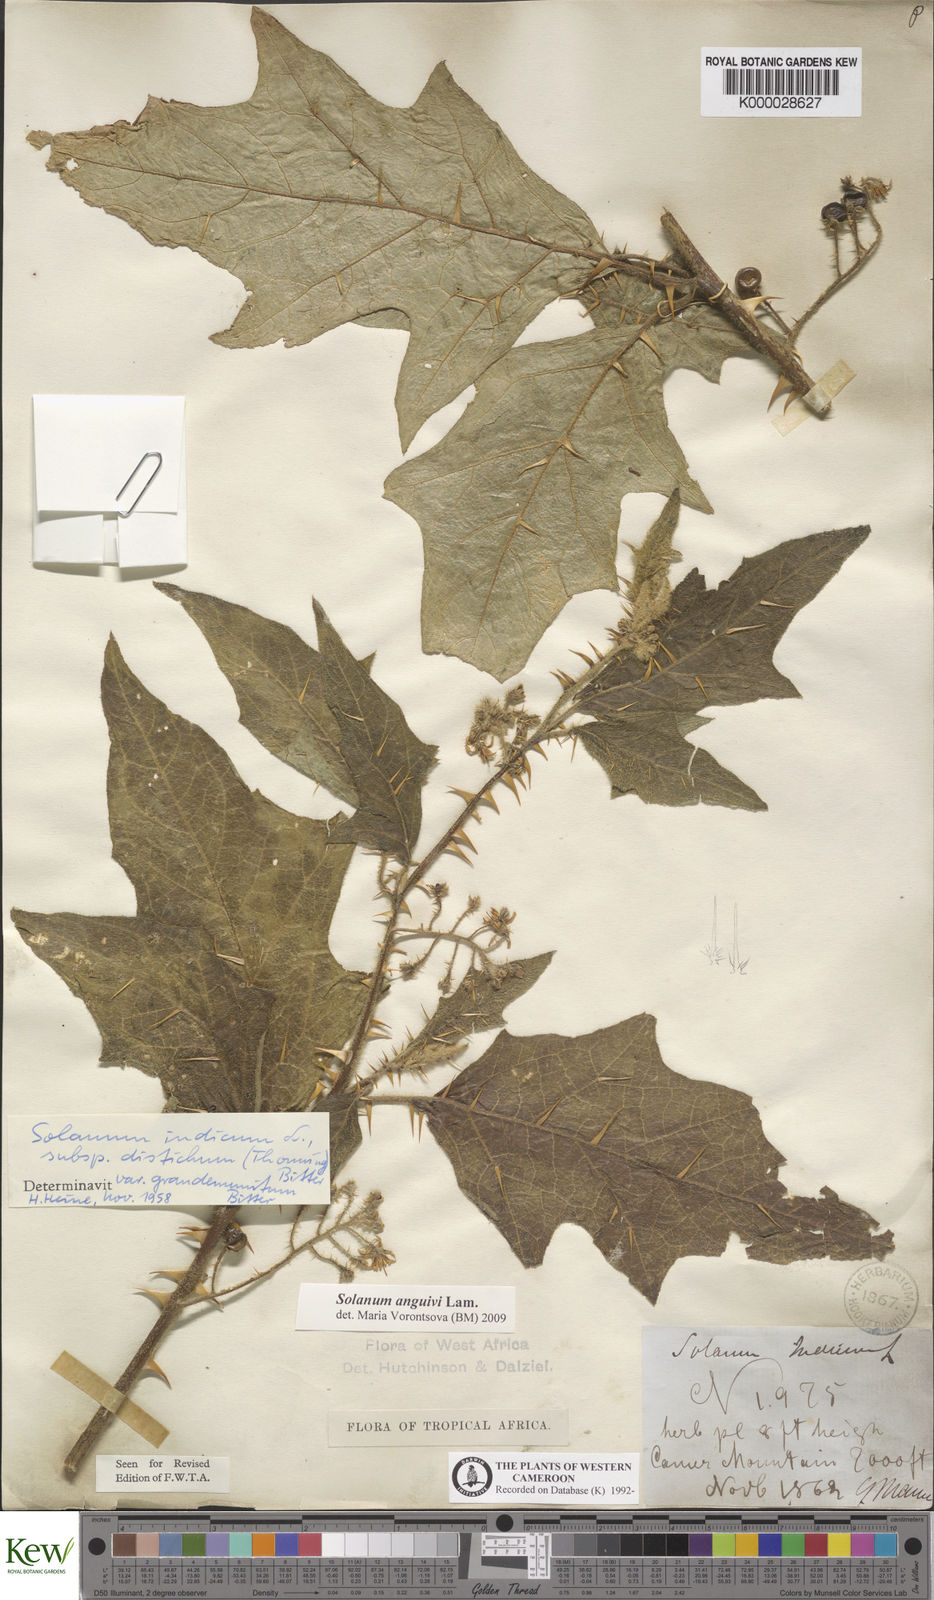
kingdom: Plantae
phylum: Tracheophyta
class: Magnoliopsida
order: Solanales
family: Solanaceae
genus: Solanum
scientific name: Solanum violaceum
